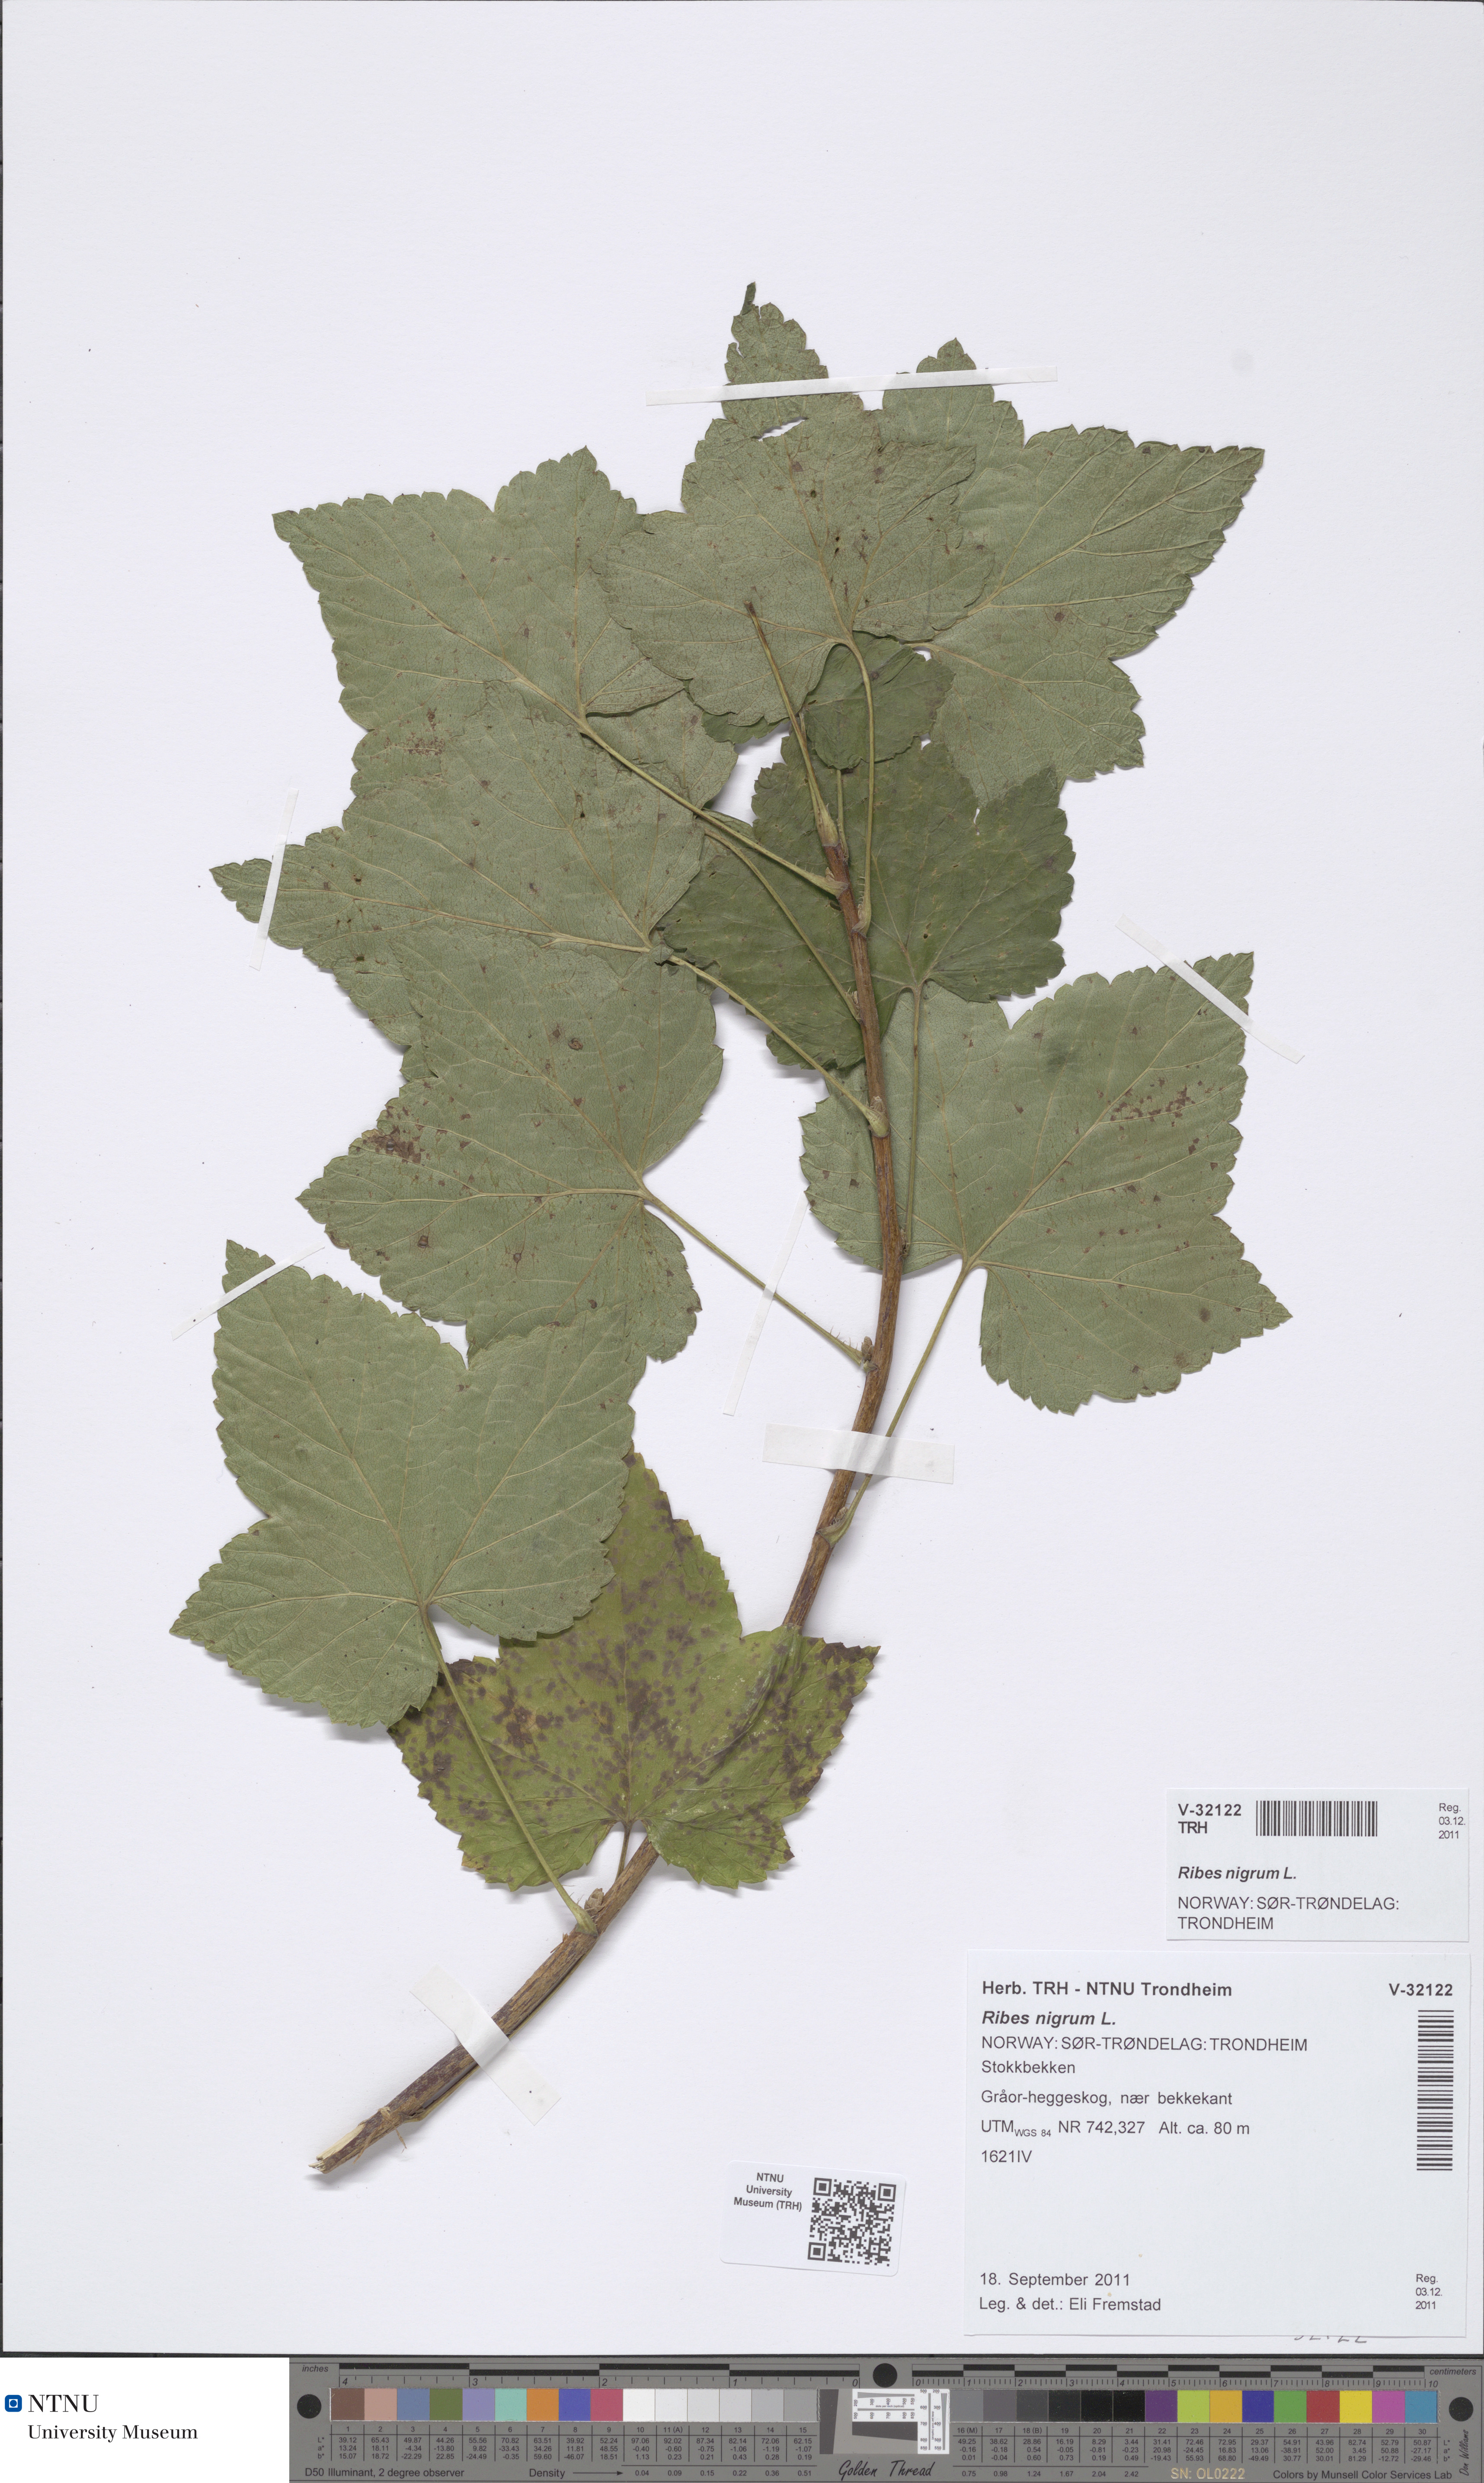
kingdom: Plantae
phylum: Tracheophyta
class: Magnoliopsida
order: Saxifragales
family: Grossulariaceae
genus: Ribes
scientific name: Ribes nigrum
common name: Black currant
